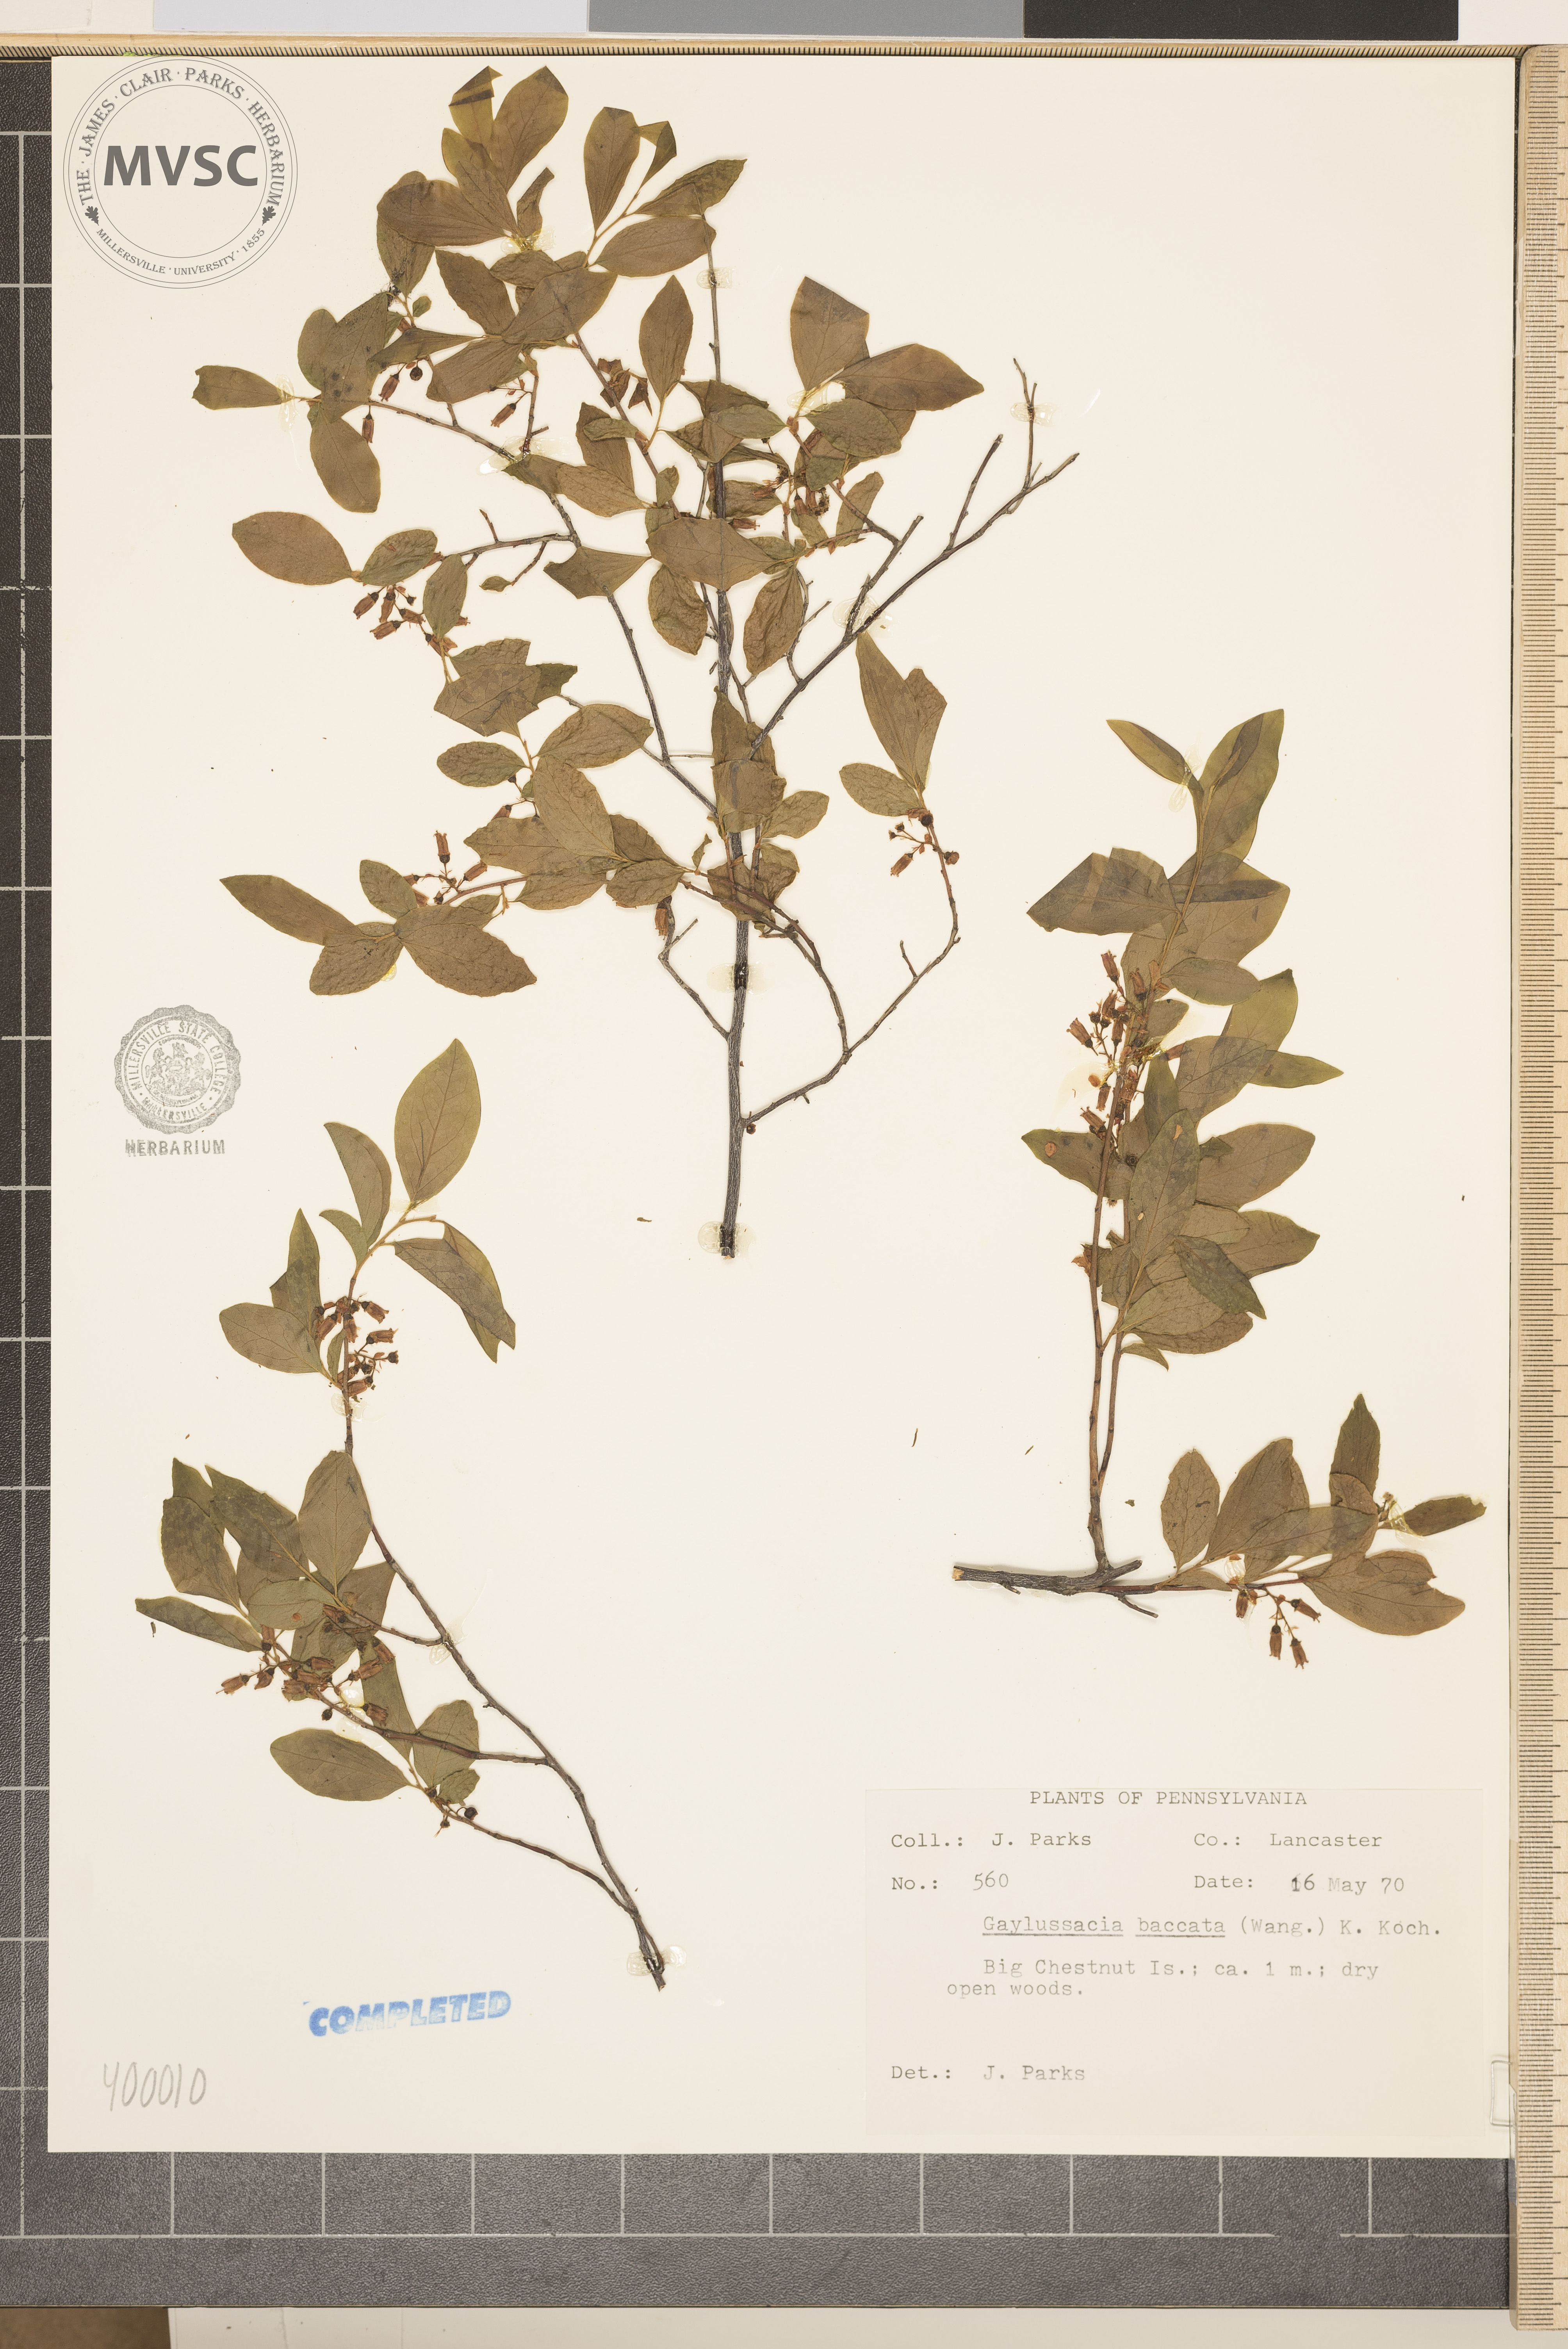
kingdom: Plantae
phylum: Tracheophyta
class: Magnoliopsida
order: Ericales
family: Ericaceae
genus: Gaylussacia
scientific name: Gaylussacia baccata
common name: Black huckleberry
